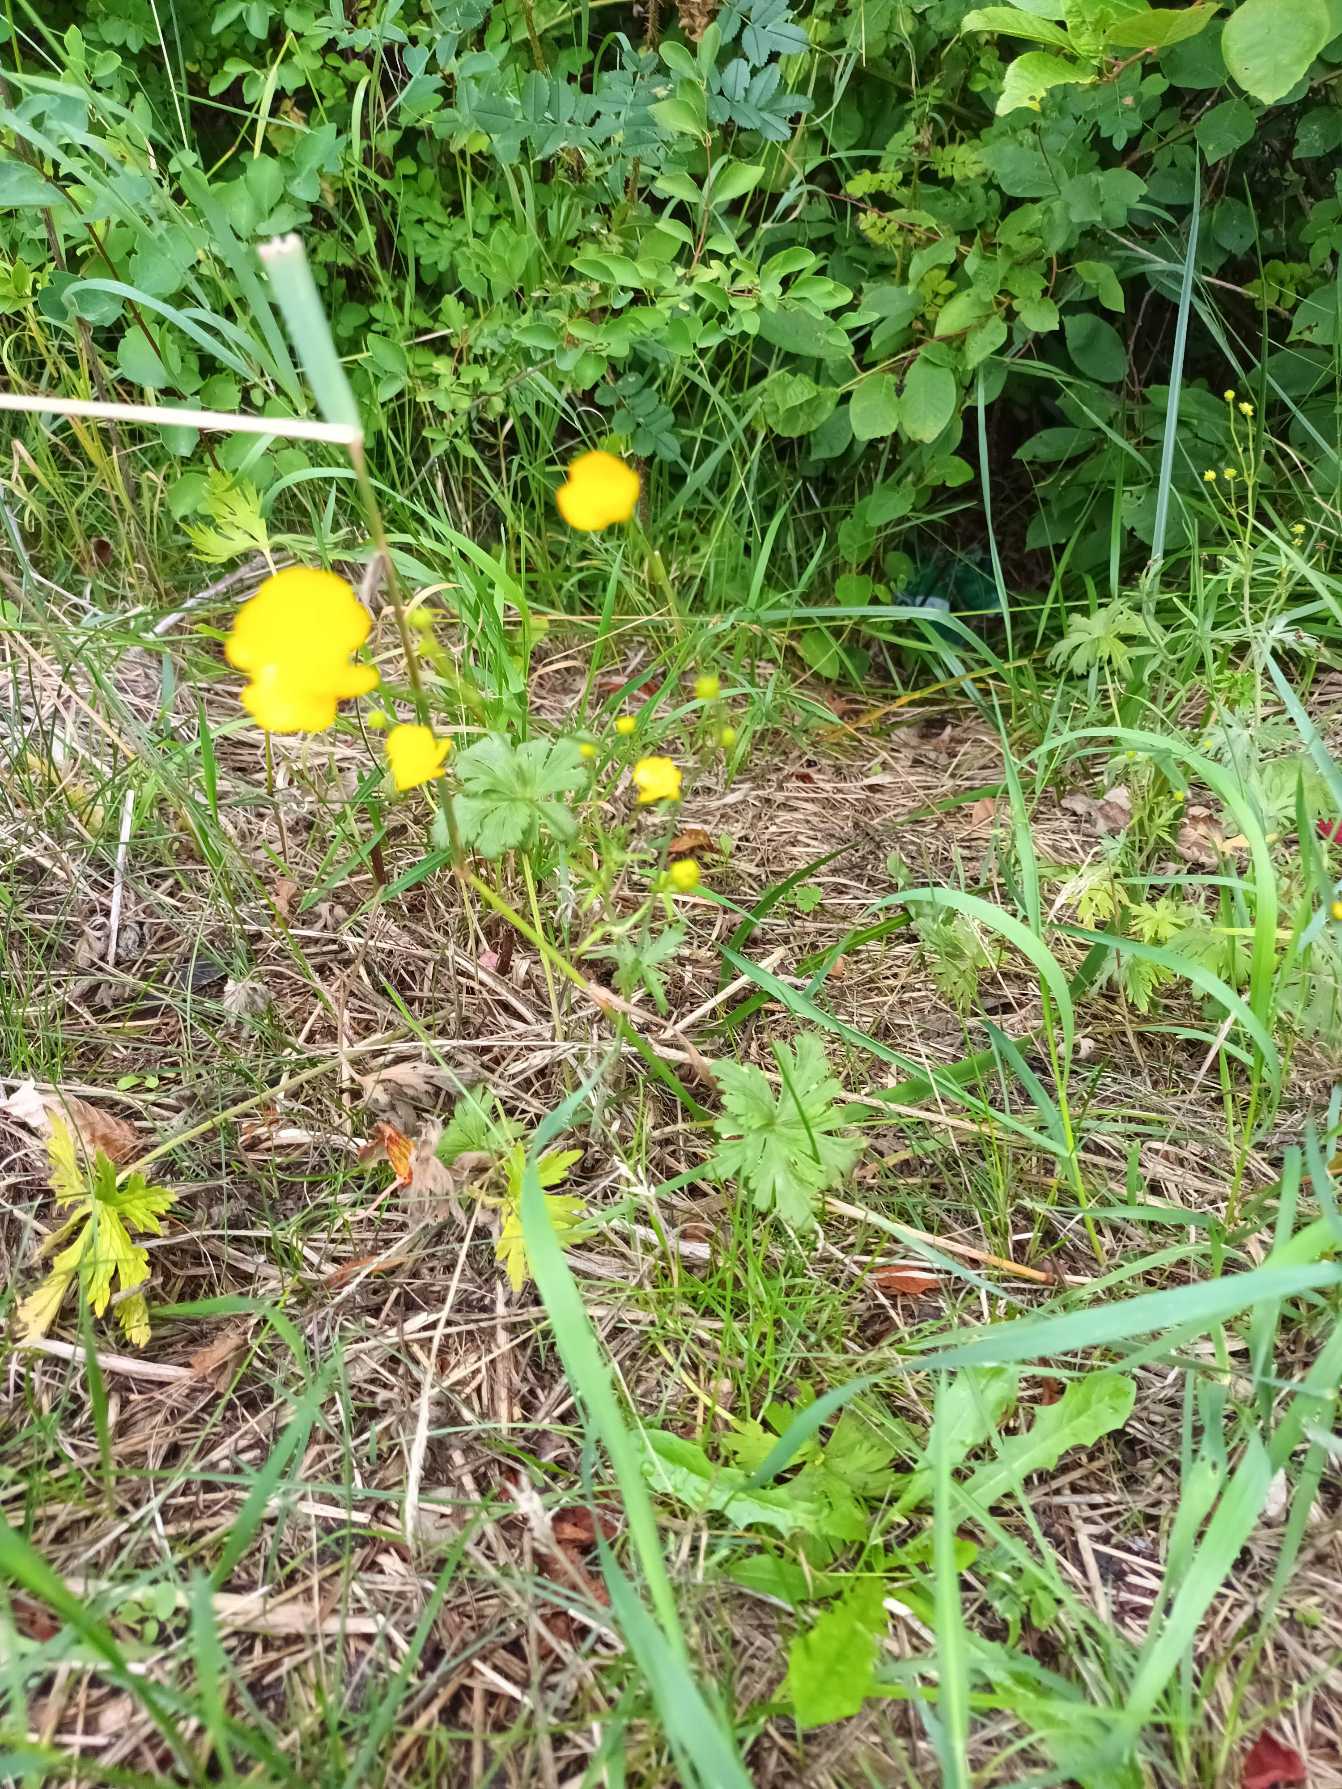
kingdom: Plantae
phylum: Tracheophyta
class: Magnoliopsida
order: Ranunculales
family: Ranunculaceae
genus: Ranunculus
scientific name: Ranunculus acris
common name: Bidende ranunkel
